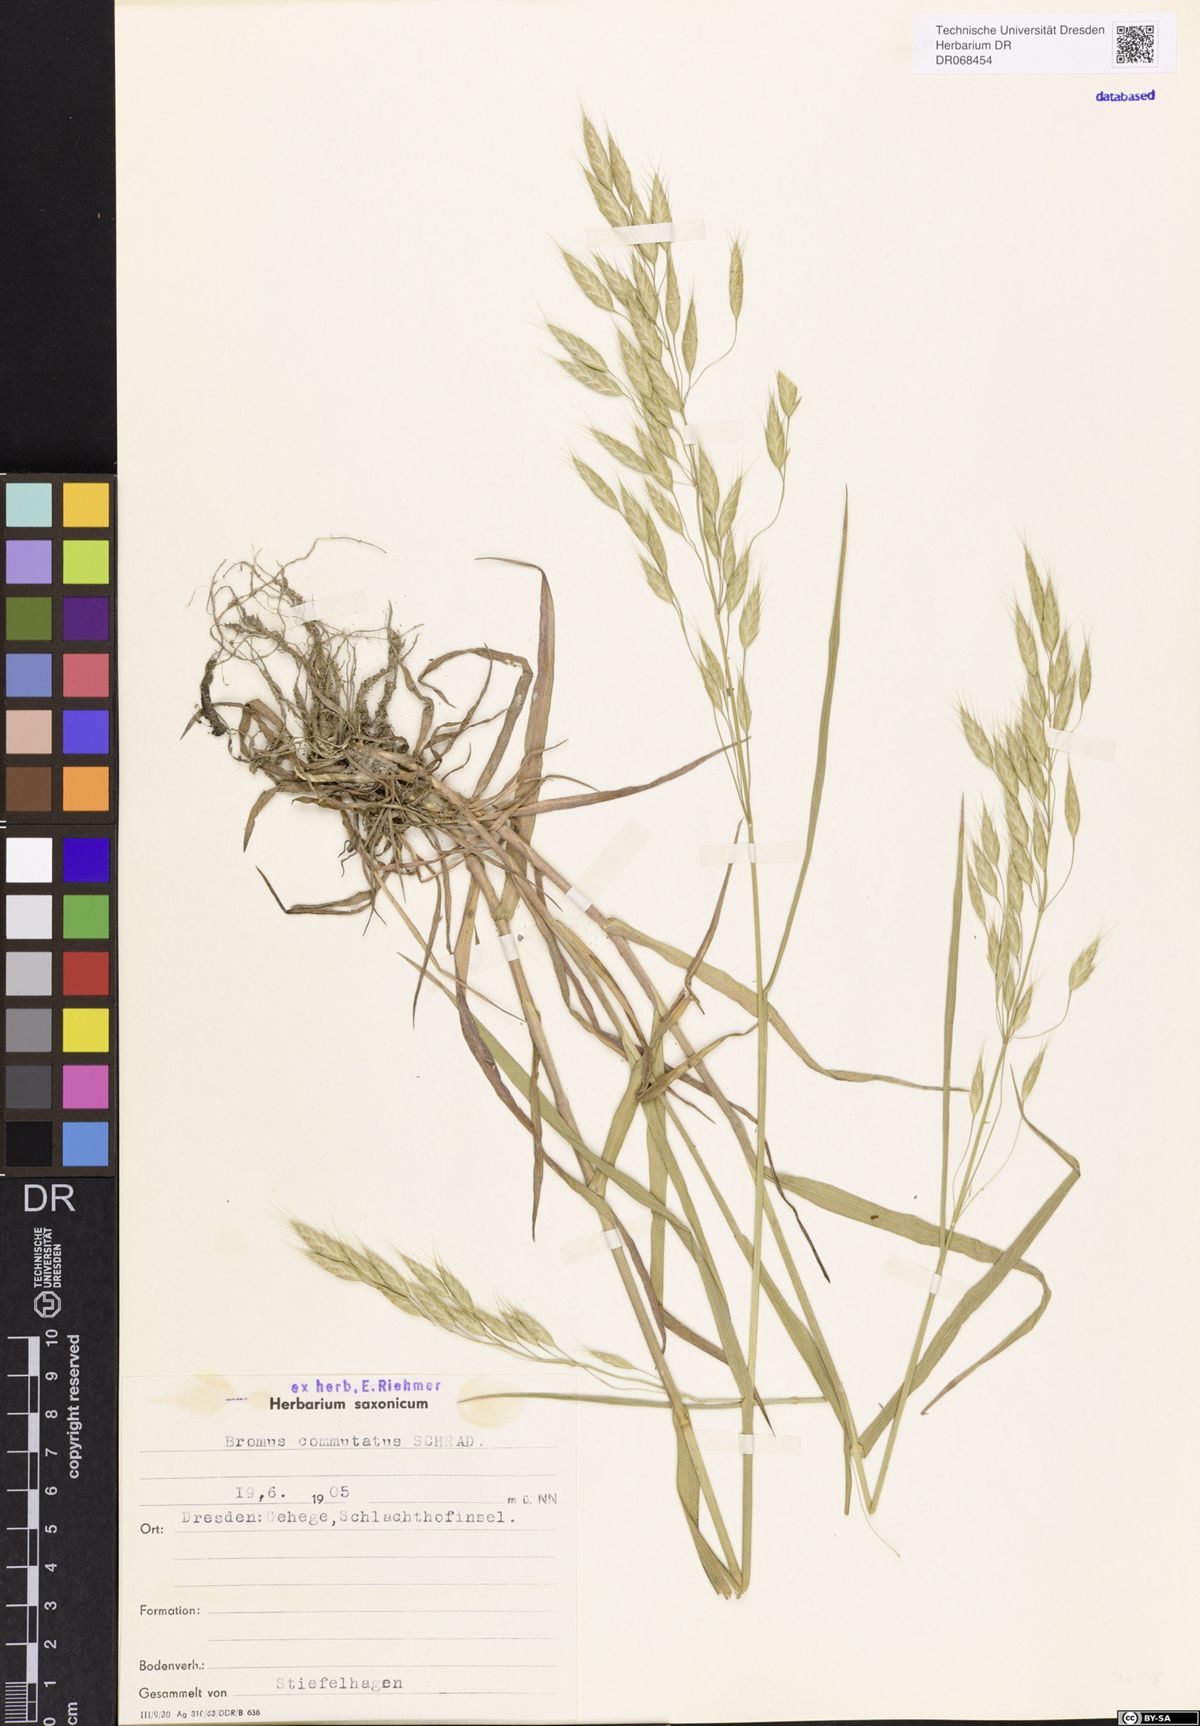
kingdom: Plantae
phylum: Tracheophyta
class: Liliopsida
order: Poales
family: Poaceae
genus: Bromus
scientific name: Bromus commutatus
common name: Meadow brome
